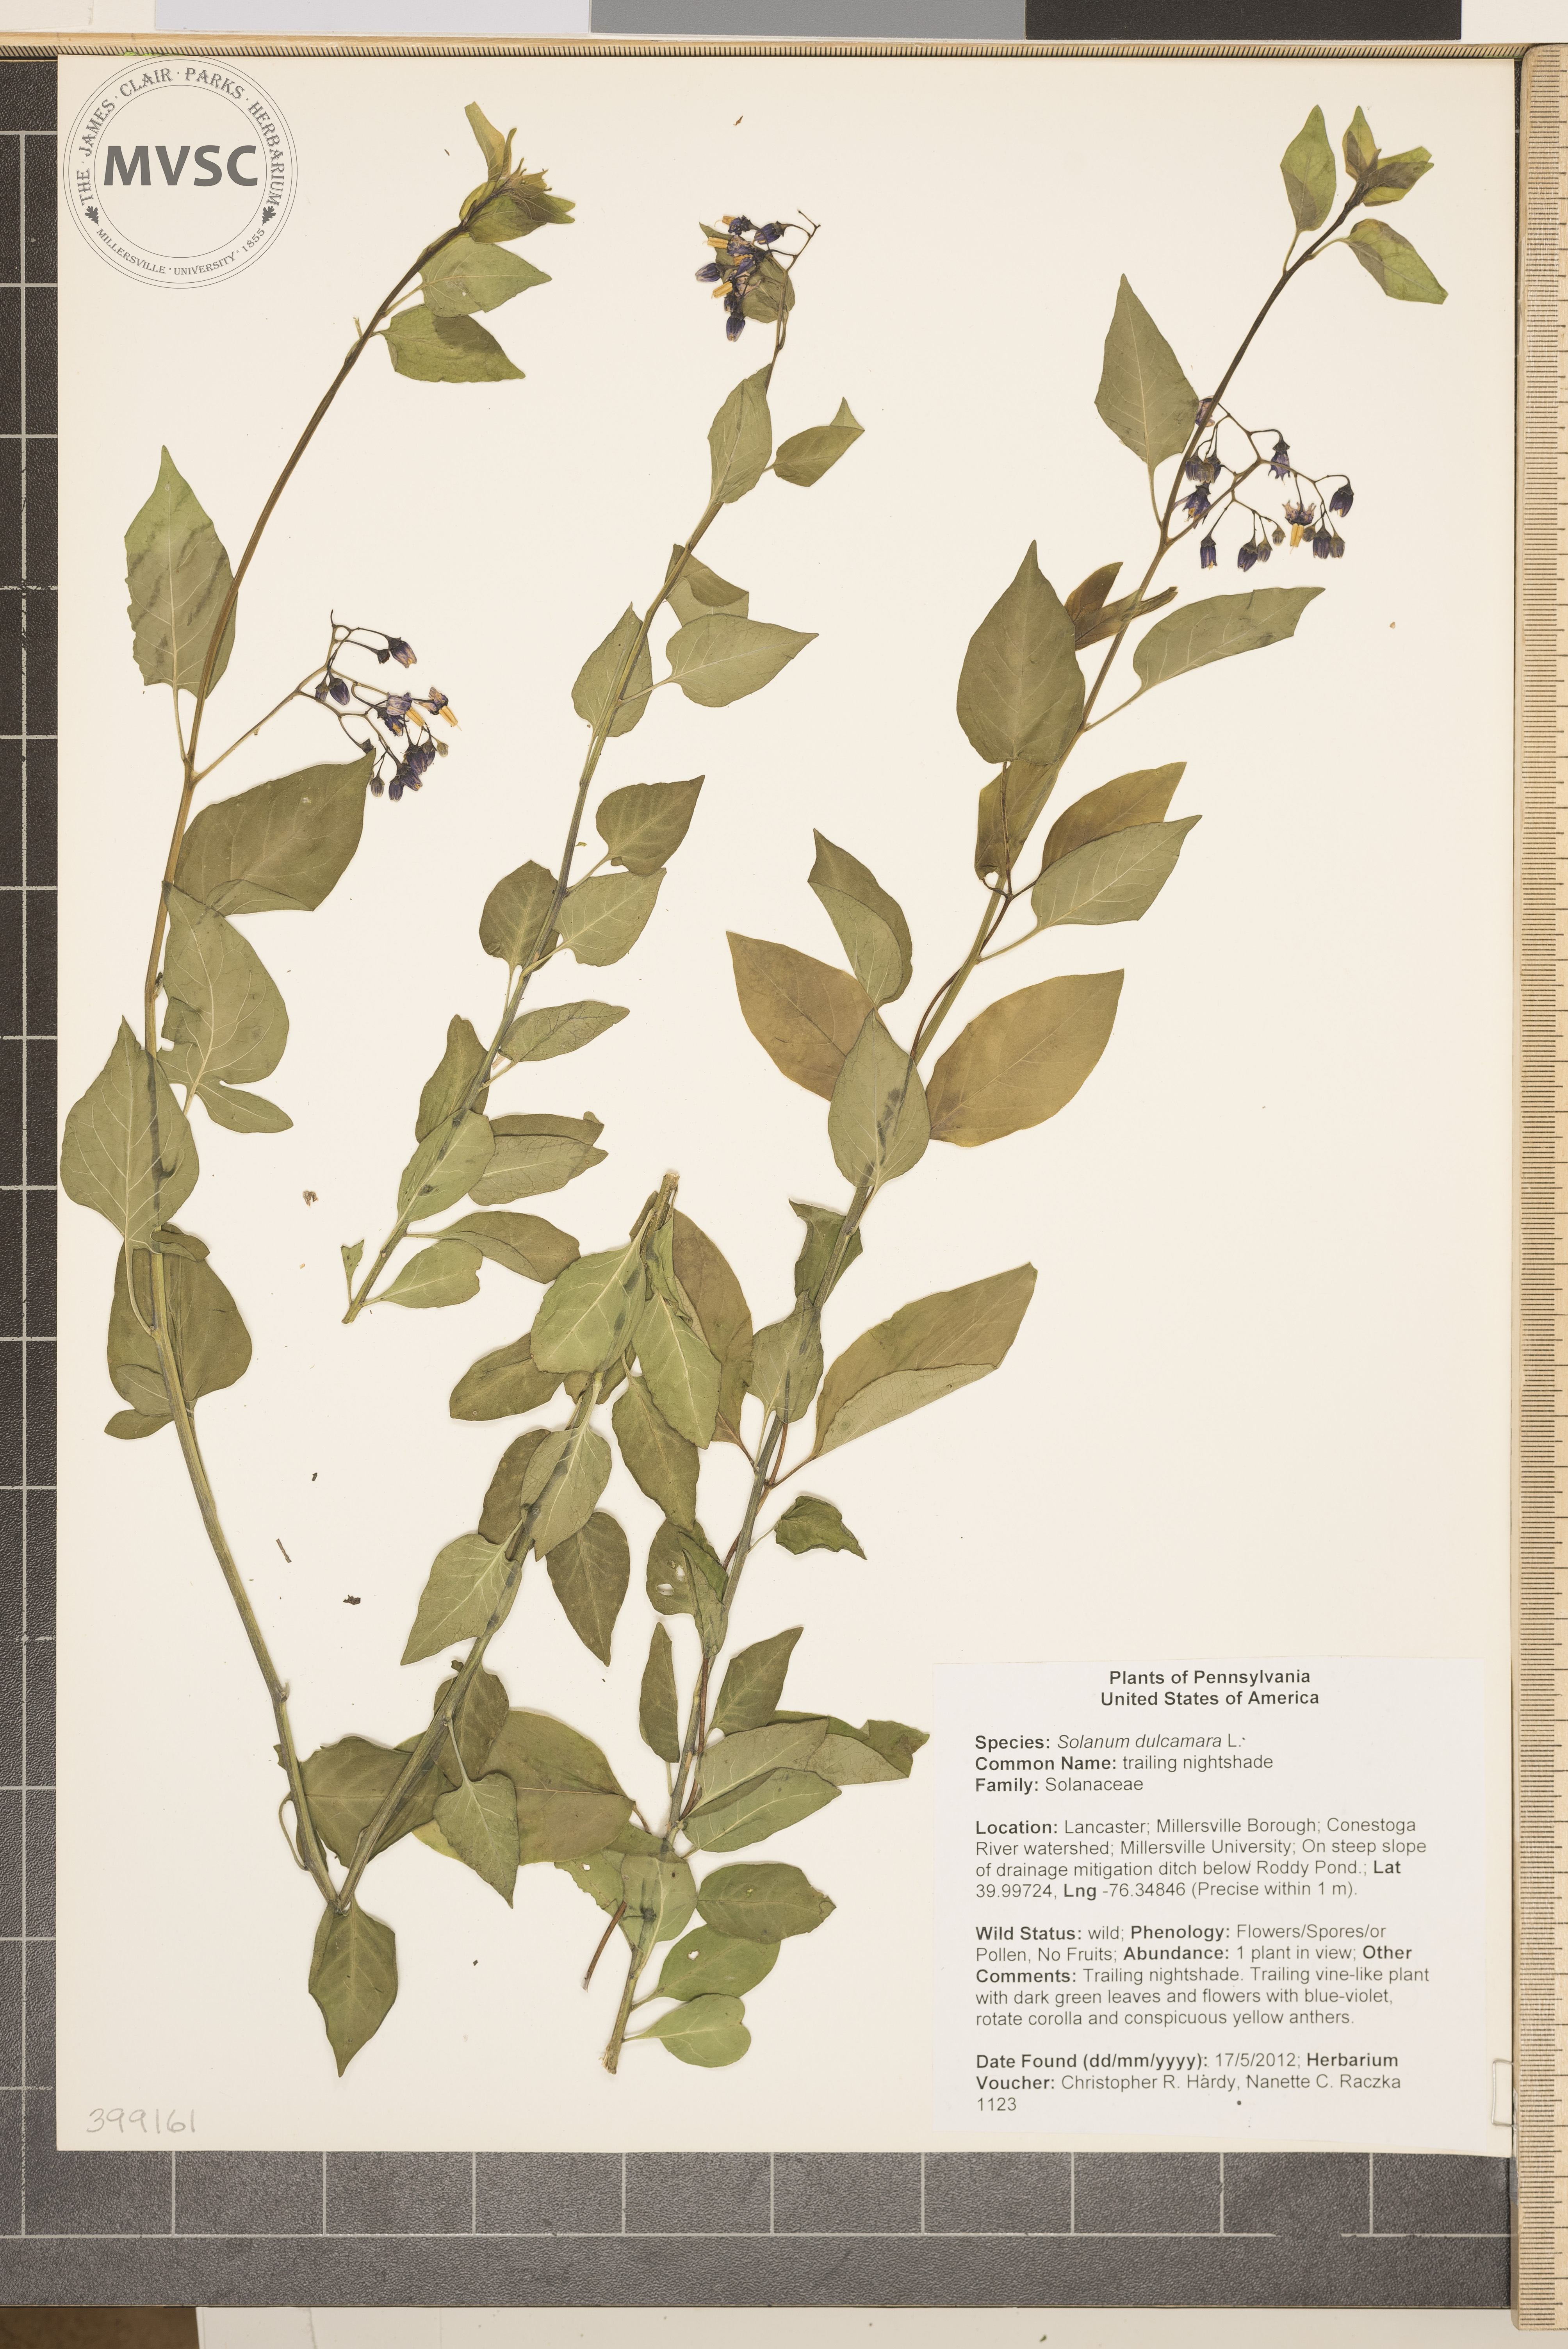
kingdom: Plantae
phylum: Tracheophyta
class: Magnoliopsida
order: Solanales
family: Solanaceae
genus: Solanum
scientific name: Solanum dulcamara
